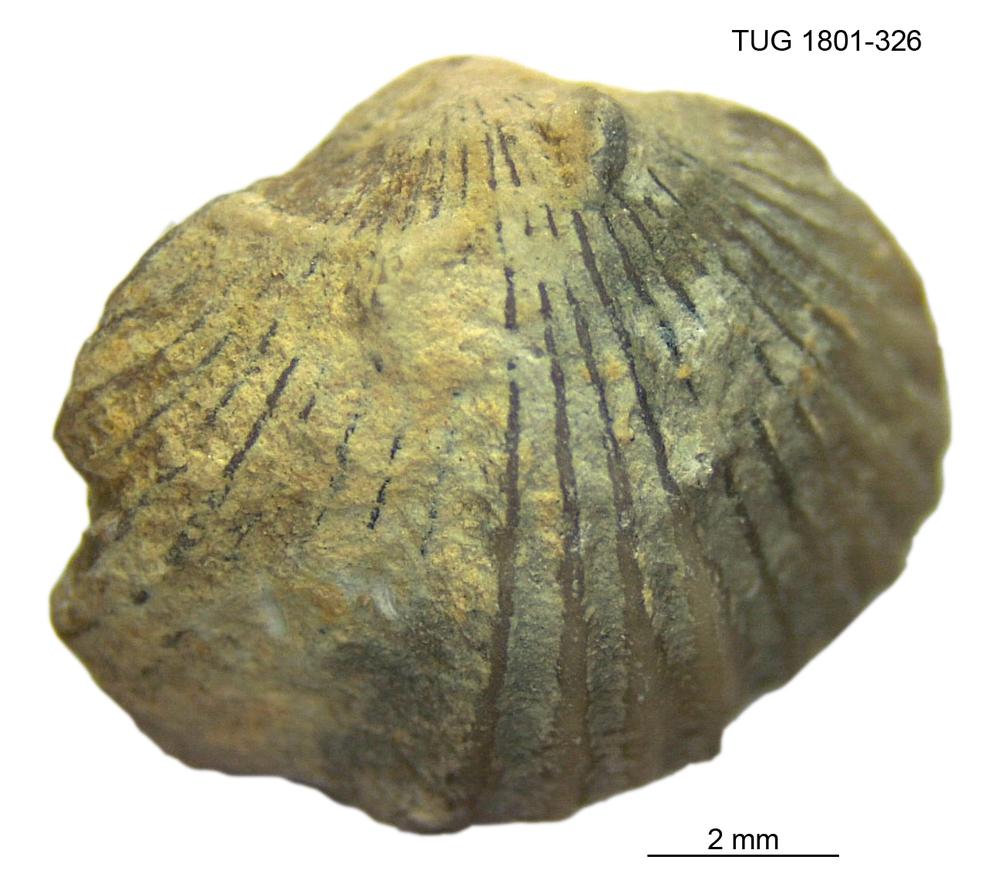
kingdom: Animalia
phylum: Brachiopoda
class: Rhynchonellata
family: Plectorthidae
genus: Platystrophia
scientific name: Platystrophia dentata
